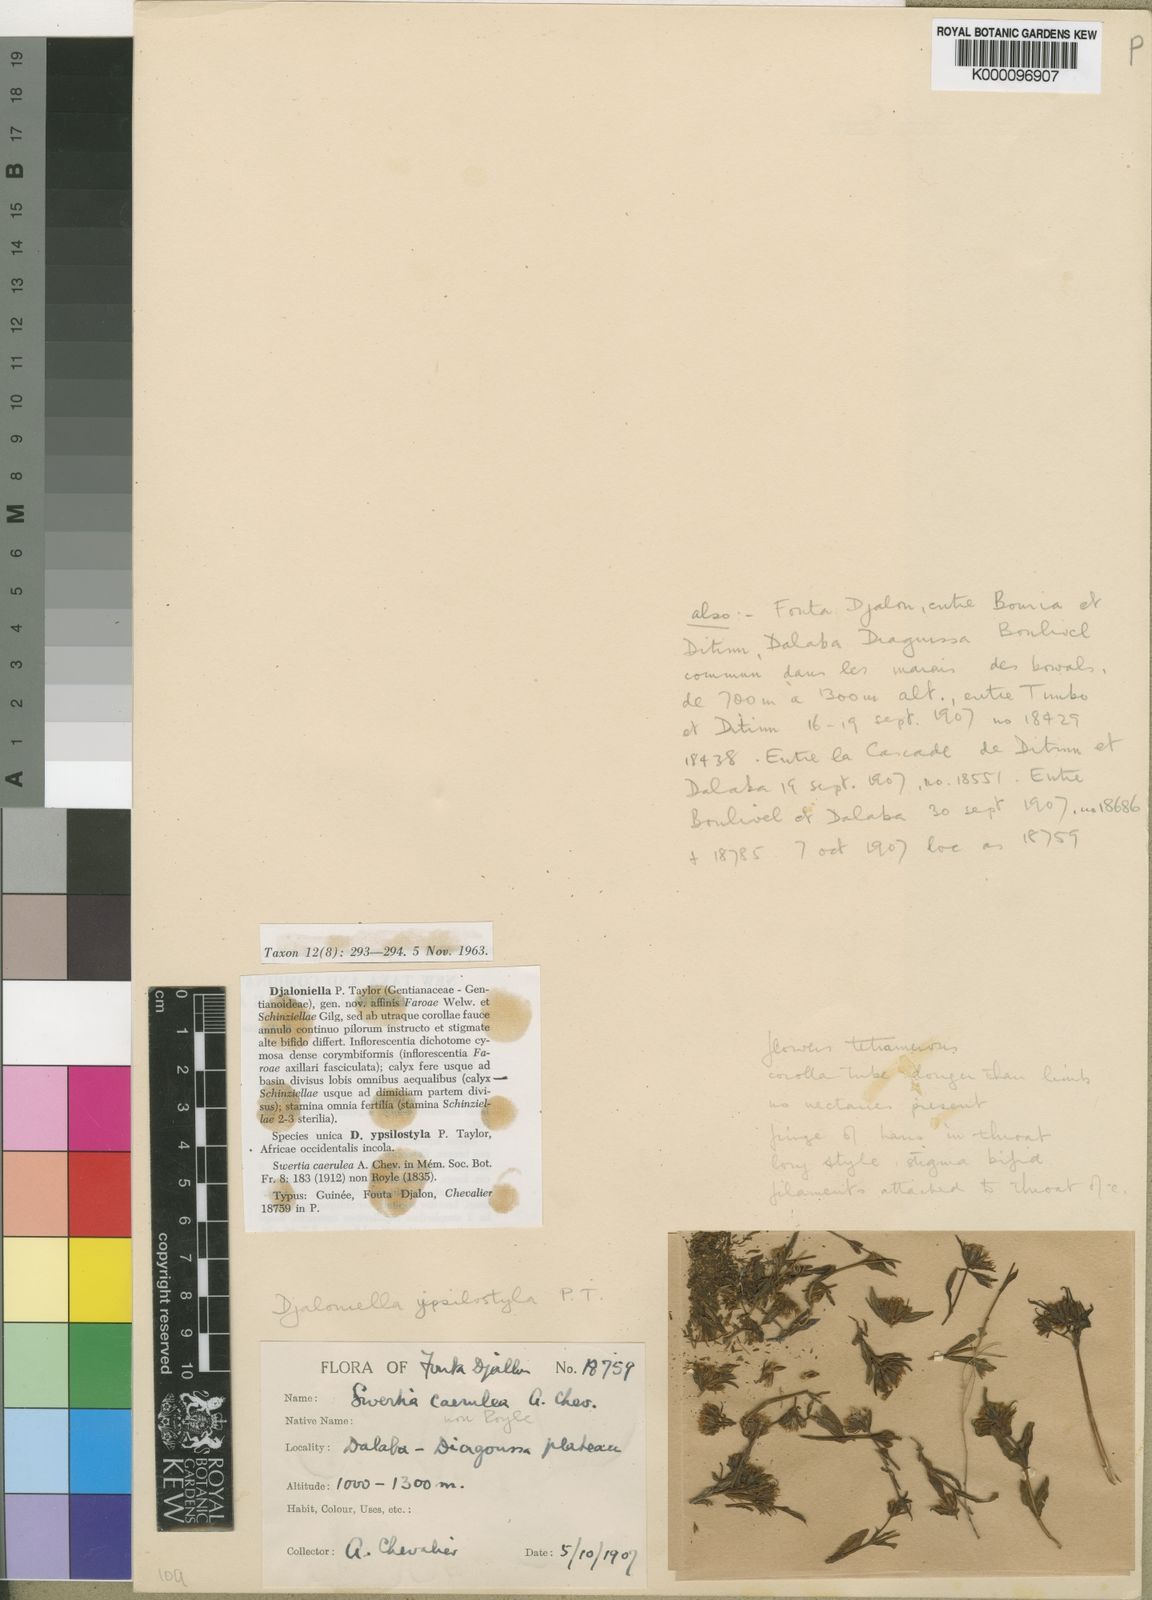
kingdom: Plantae
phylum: Tracheophyta
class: Magnoliopsida
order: Gentianales
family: Gentianaceae
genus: Djaloniella
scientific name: Djaloniella ypsilostyla
